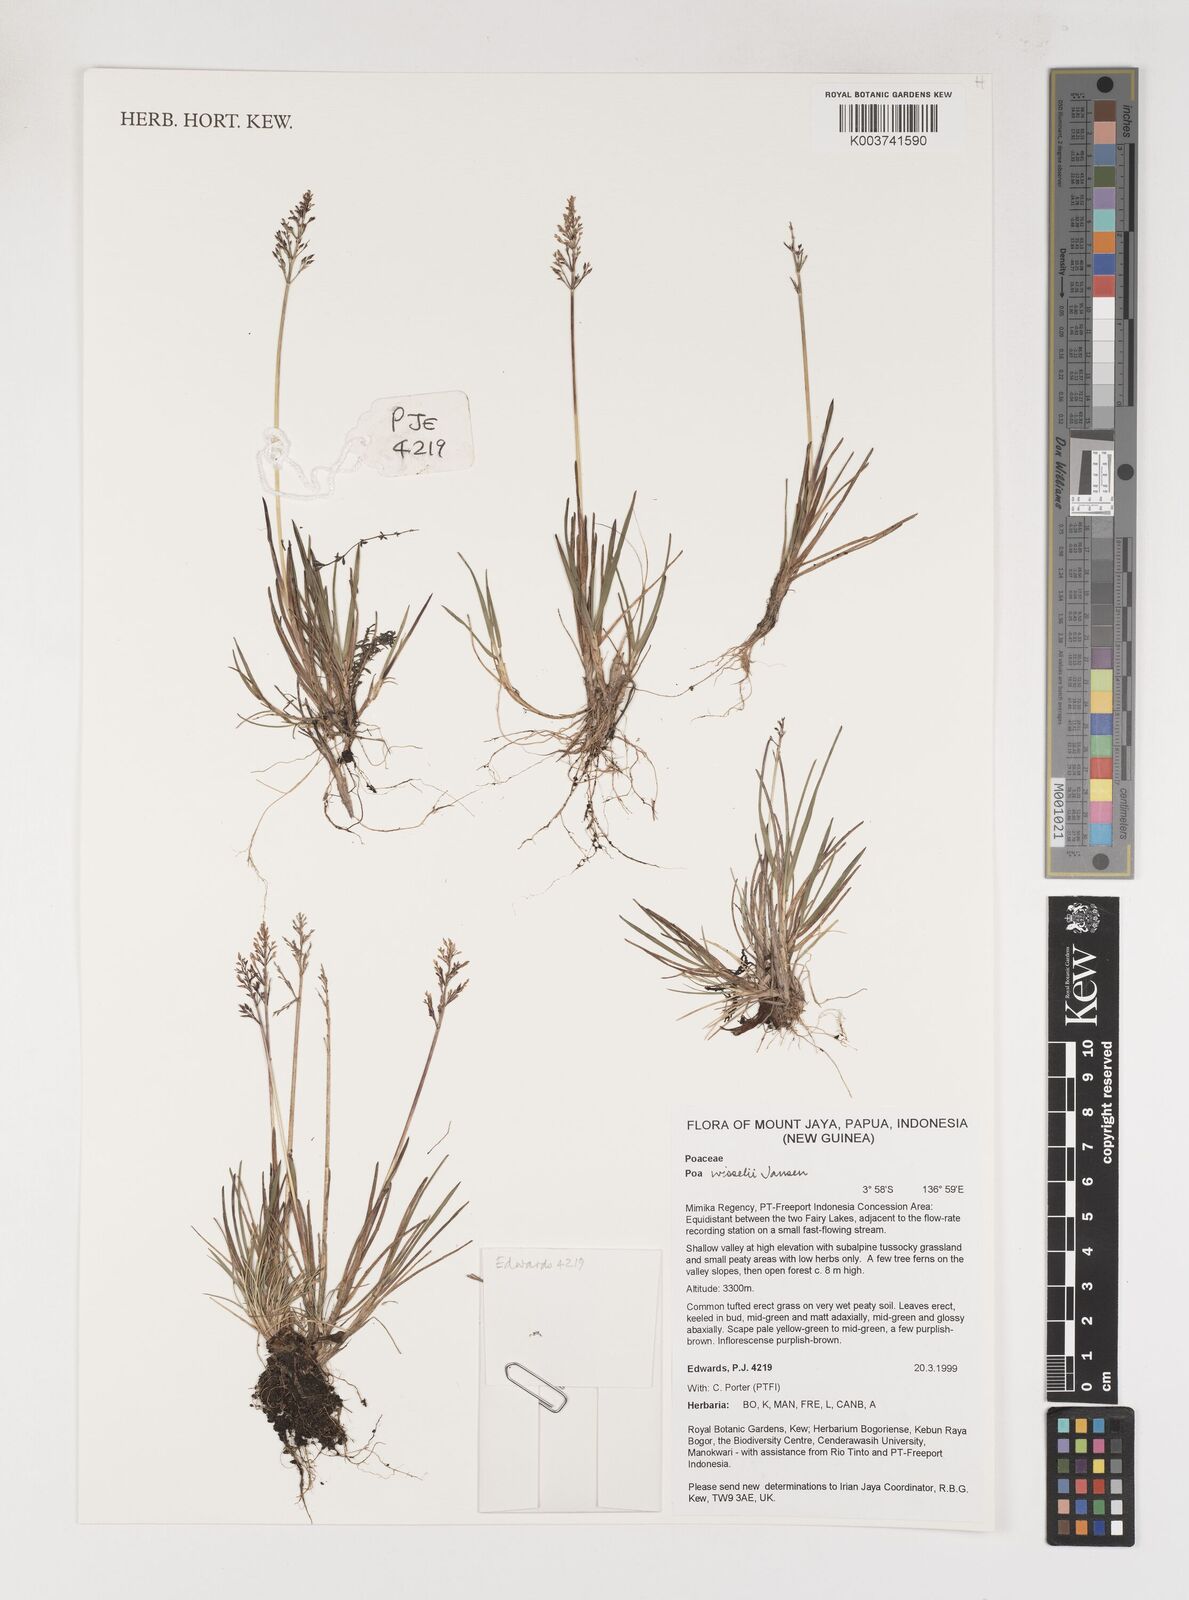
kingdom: Plantae
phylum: Tracheophyta
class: Liliopsida
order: Poales
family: Poaceae
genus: Poa
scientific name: Poa wisselii
